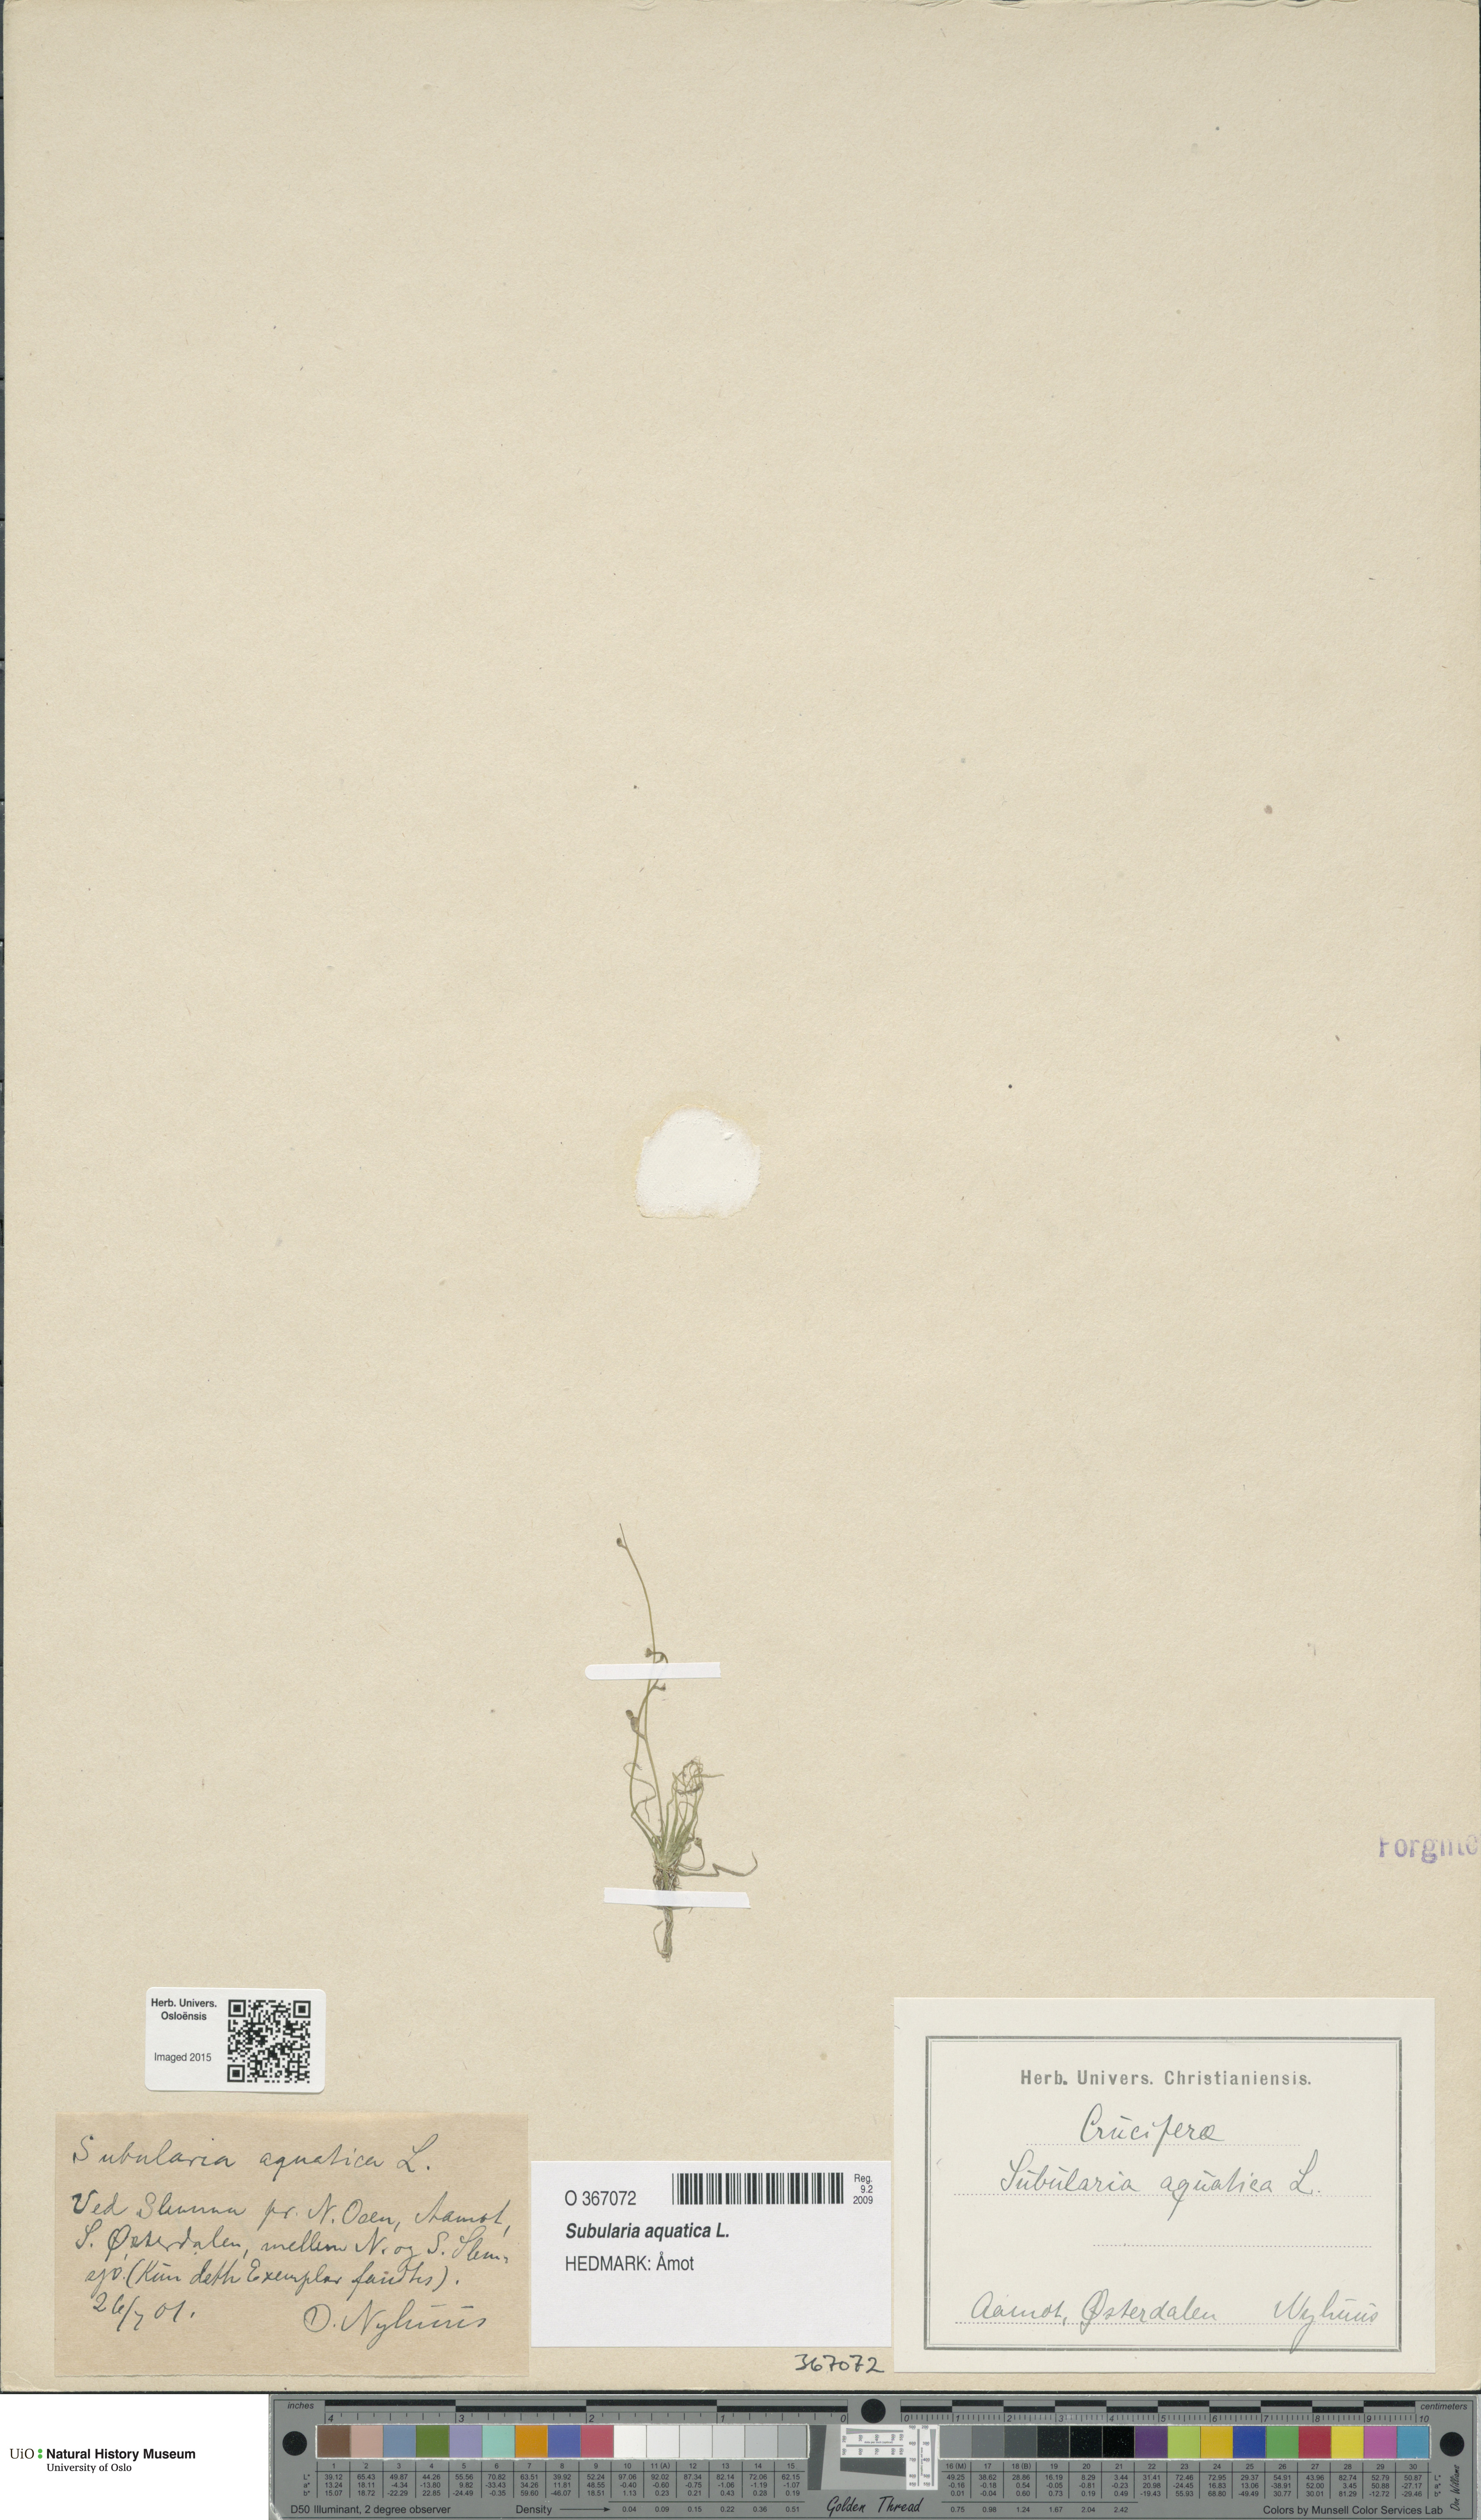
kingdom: Plantae
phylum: Tracheophyta
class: Magnoliopsida
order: Brassicales
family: Brassicaceae
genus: Subularia
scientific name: Subularia aquatica
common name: Awlwort
